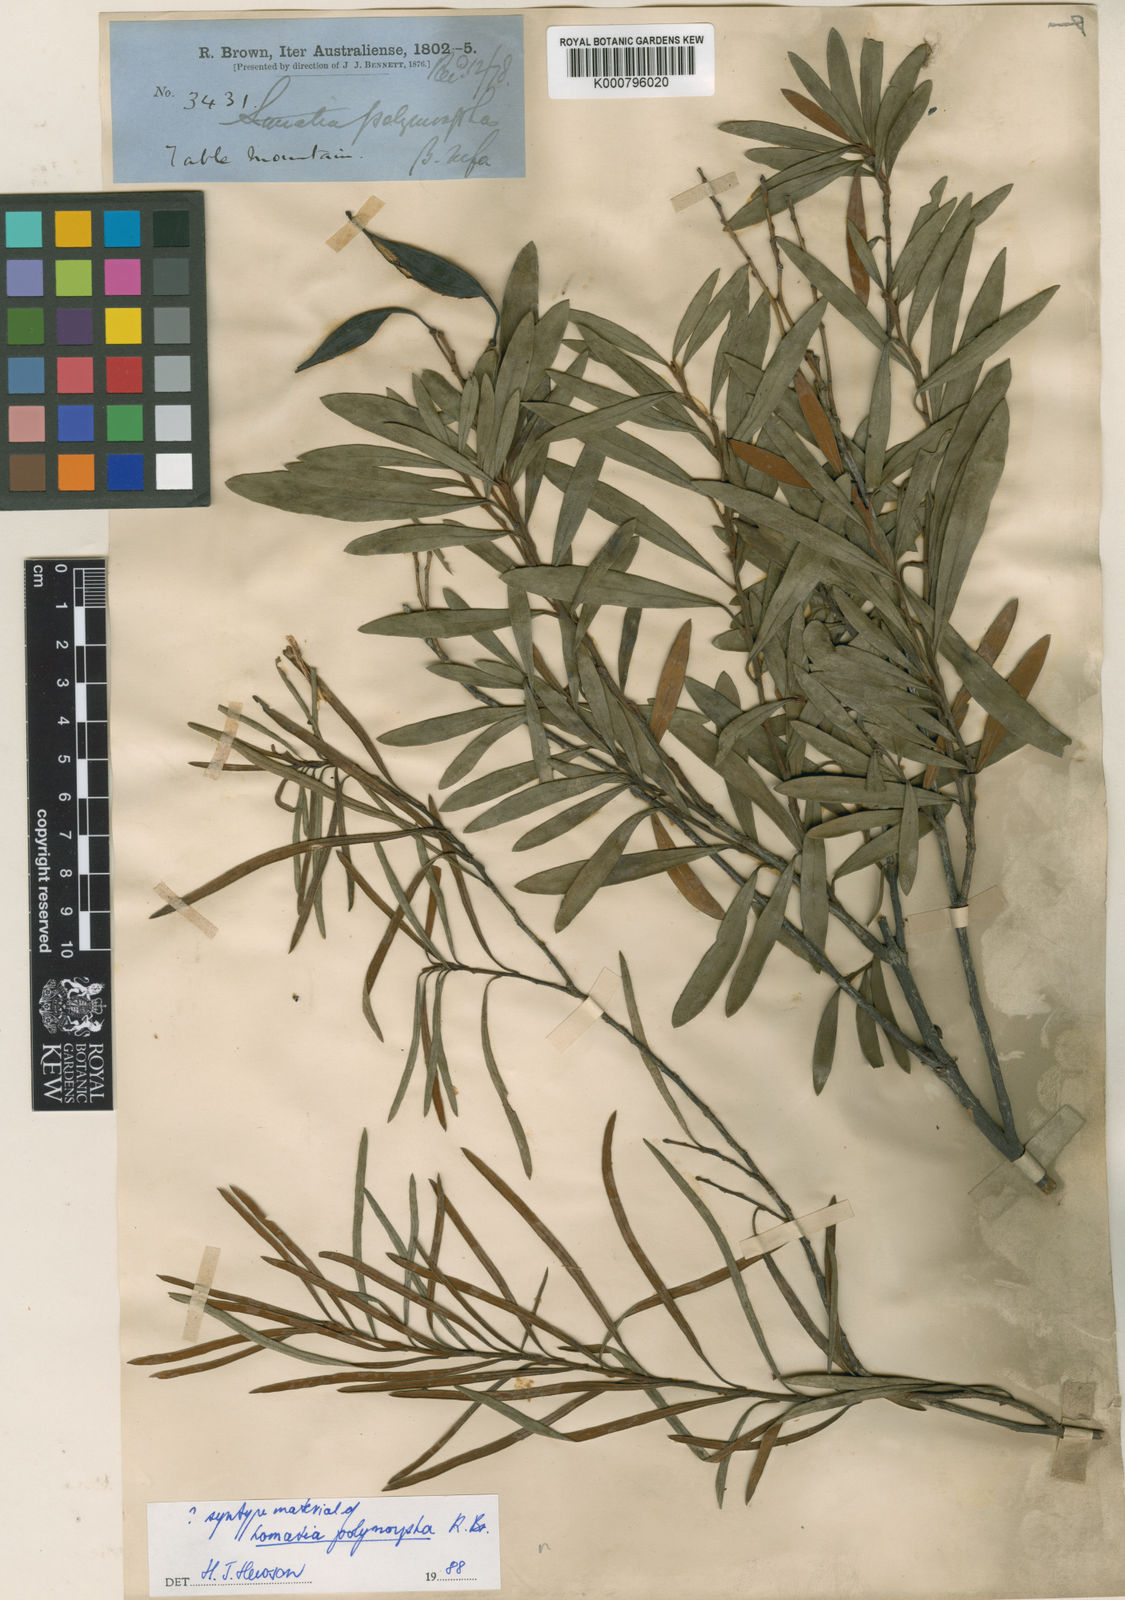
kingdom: Plantae
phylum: Tracheophyta
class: Magnoliopsida
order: Proteales
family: Proteaceae
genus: Lomatia
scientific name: Lomatia polymorpha
